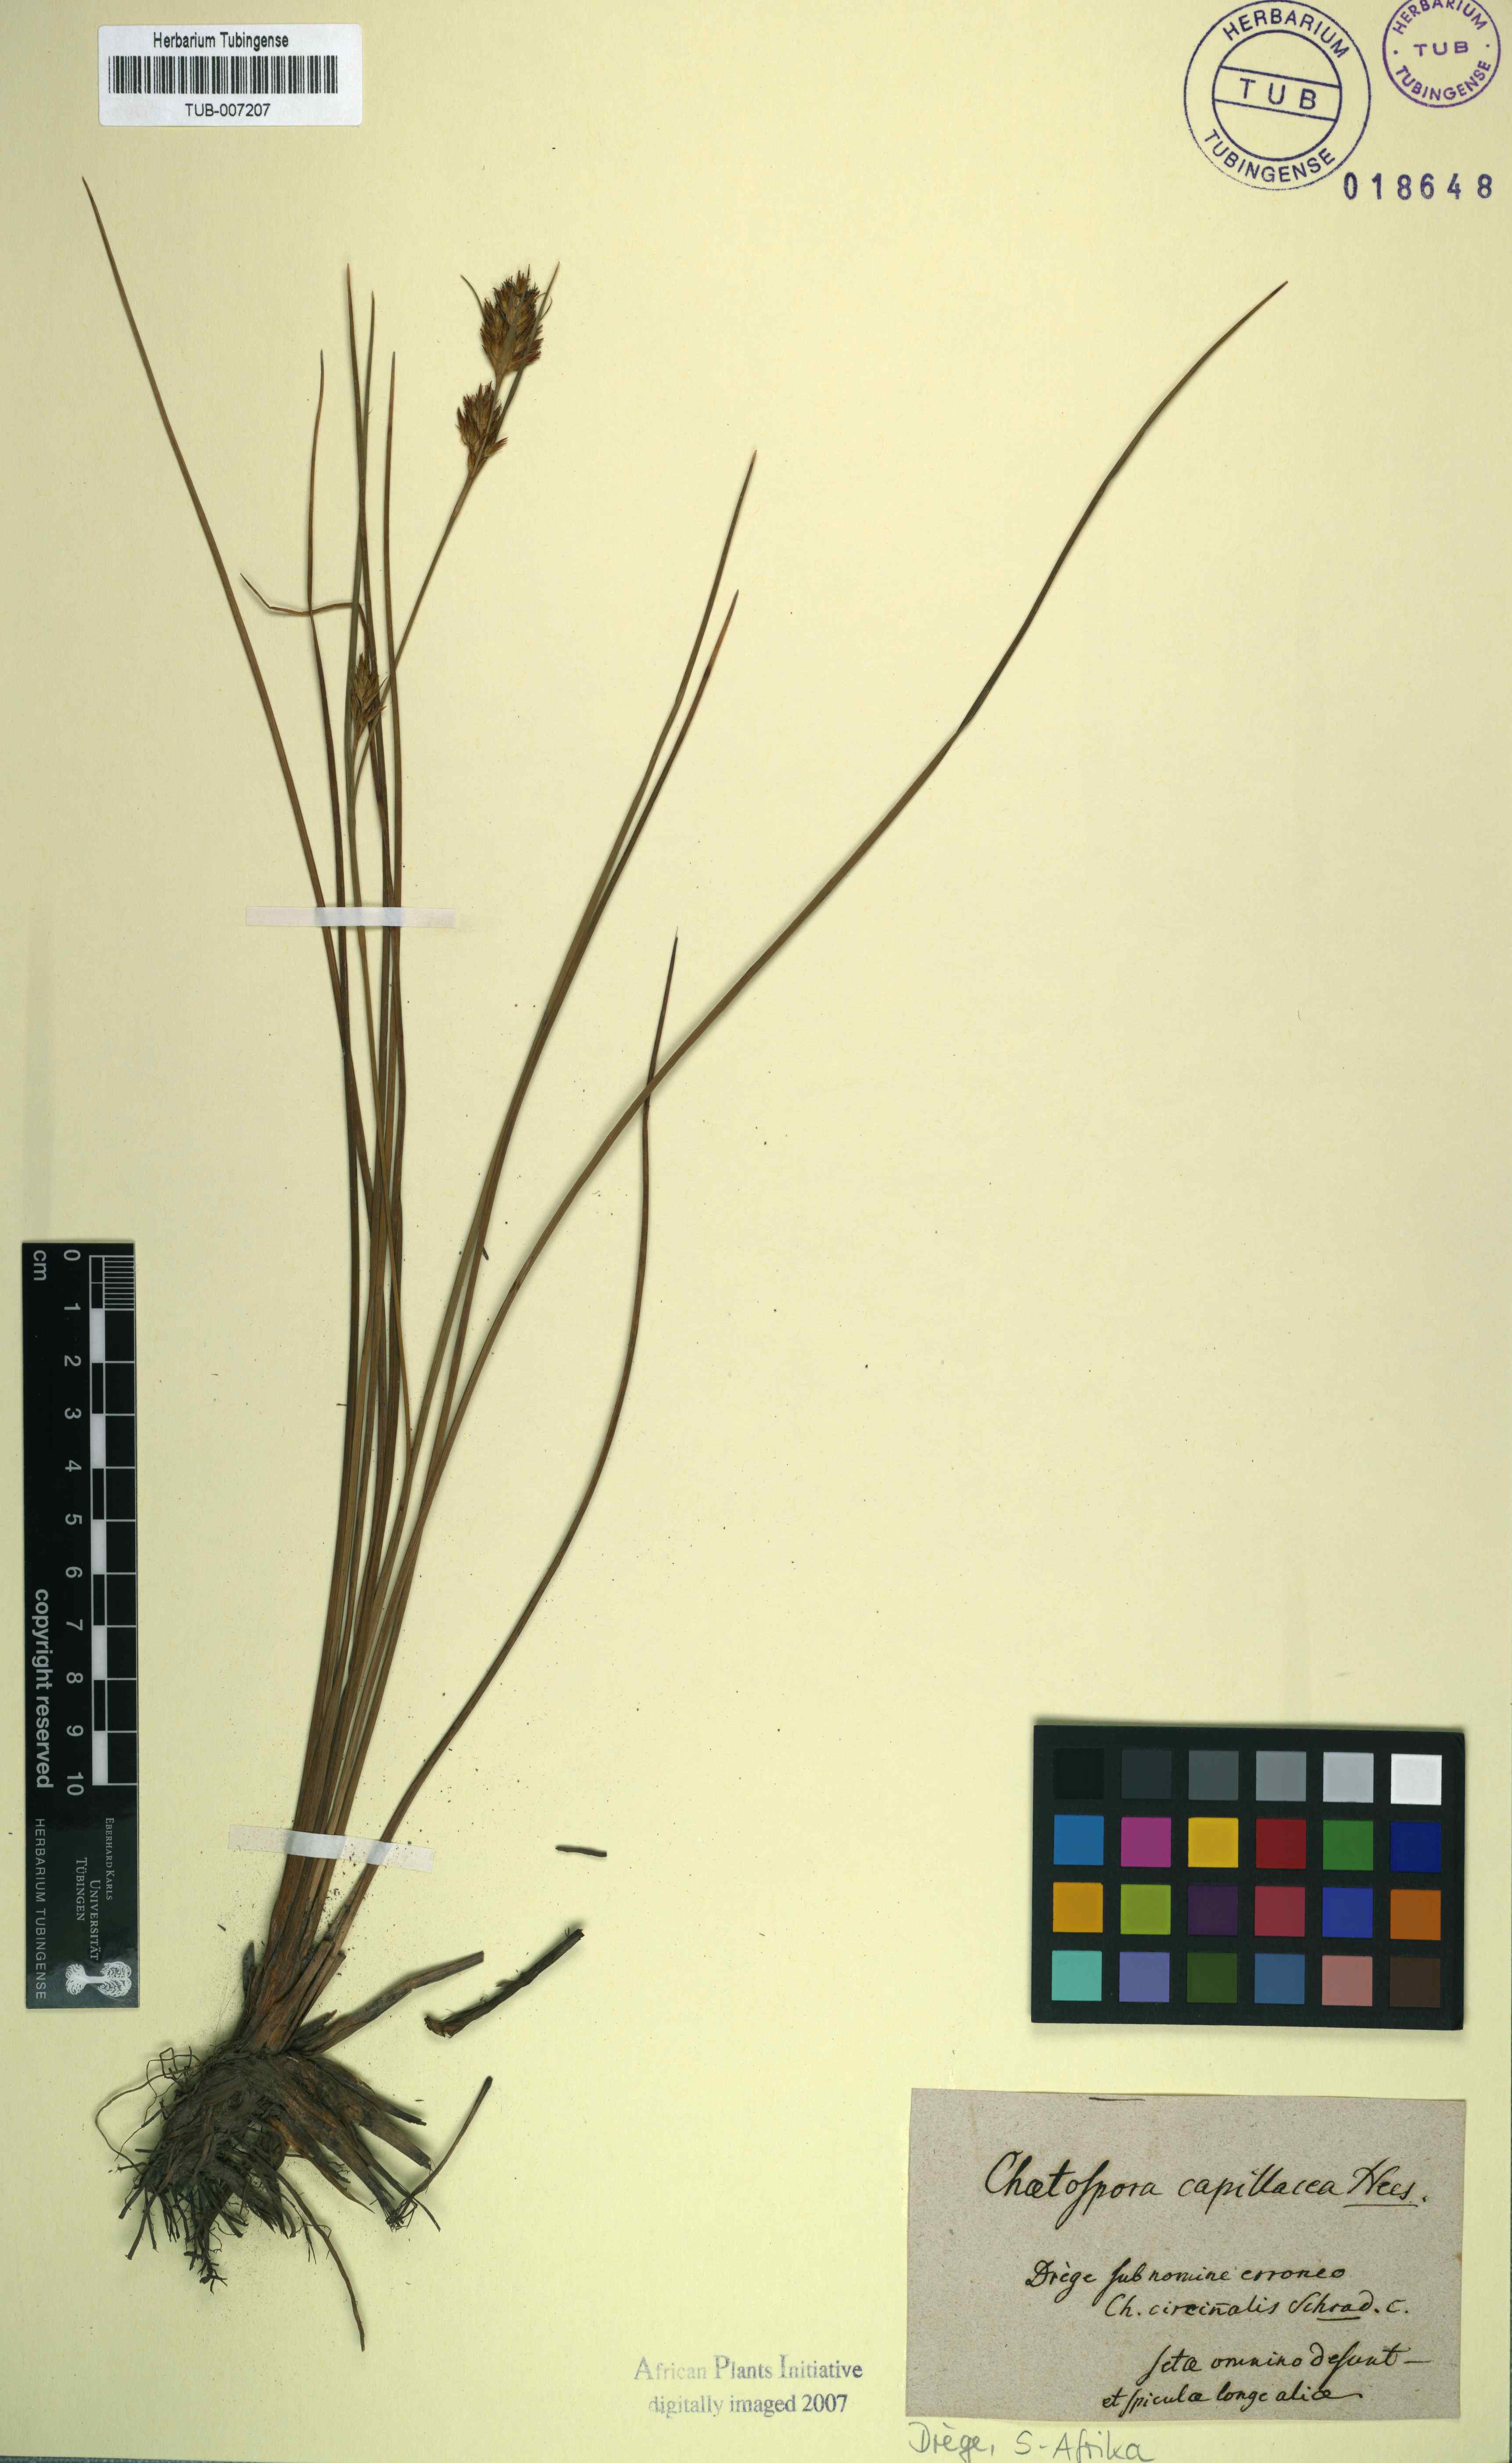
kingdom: Plantae
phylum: Tracheophyta
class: Liliopsida
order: Poales
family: Cyperaceae
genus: Carpha
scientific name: Carpha capitellata
